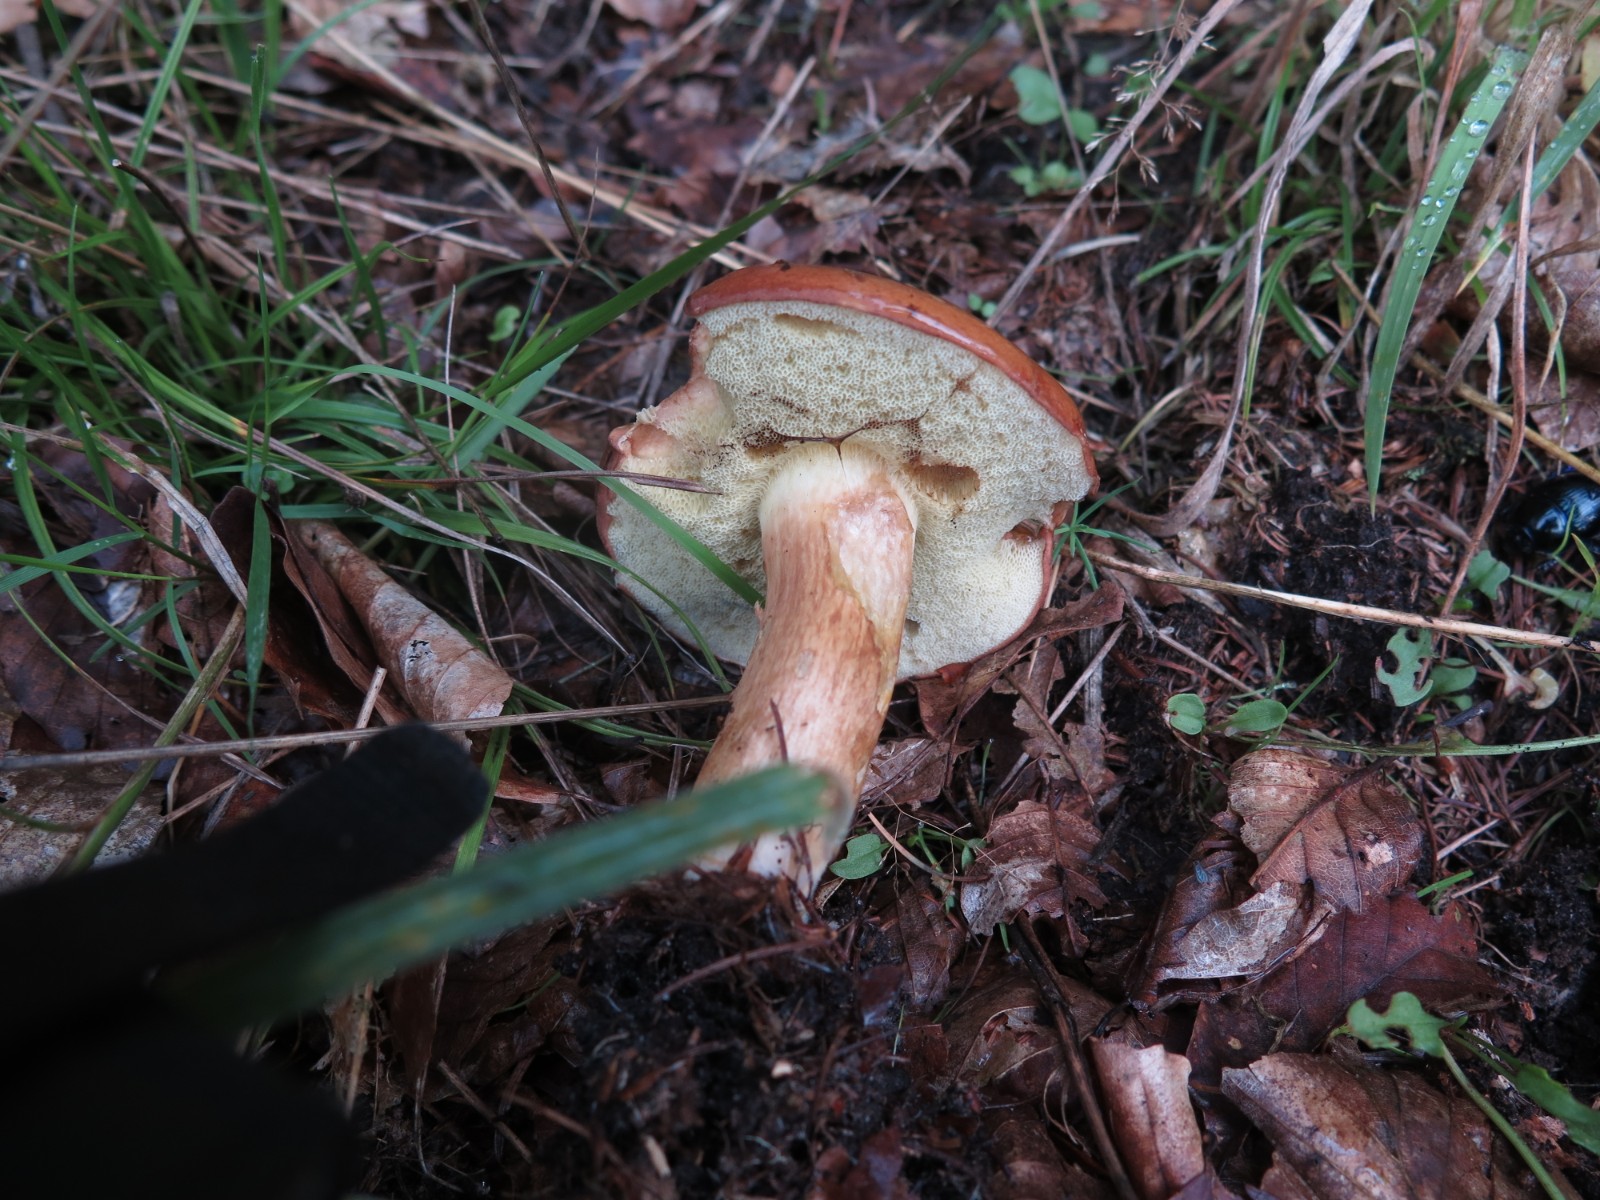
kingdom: Fungi
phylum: Basidiomycota
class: Agaricomycetes
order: Boletales
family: Boletaceae
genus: Imleria
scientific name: Imleria badia
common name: brunstokket rørhat
